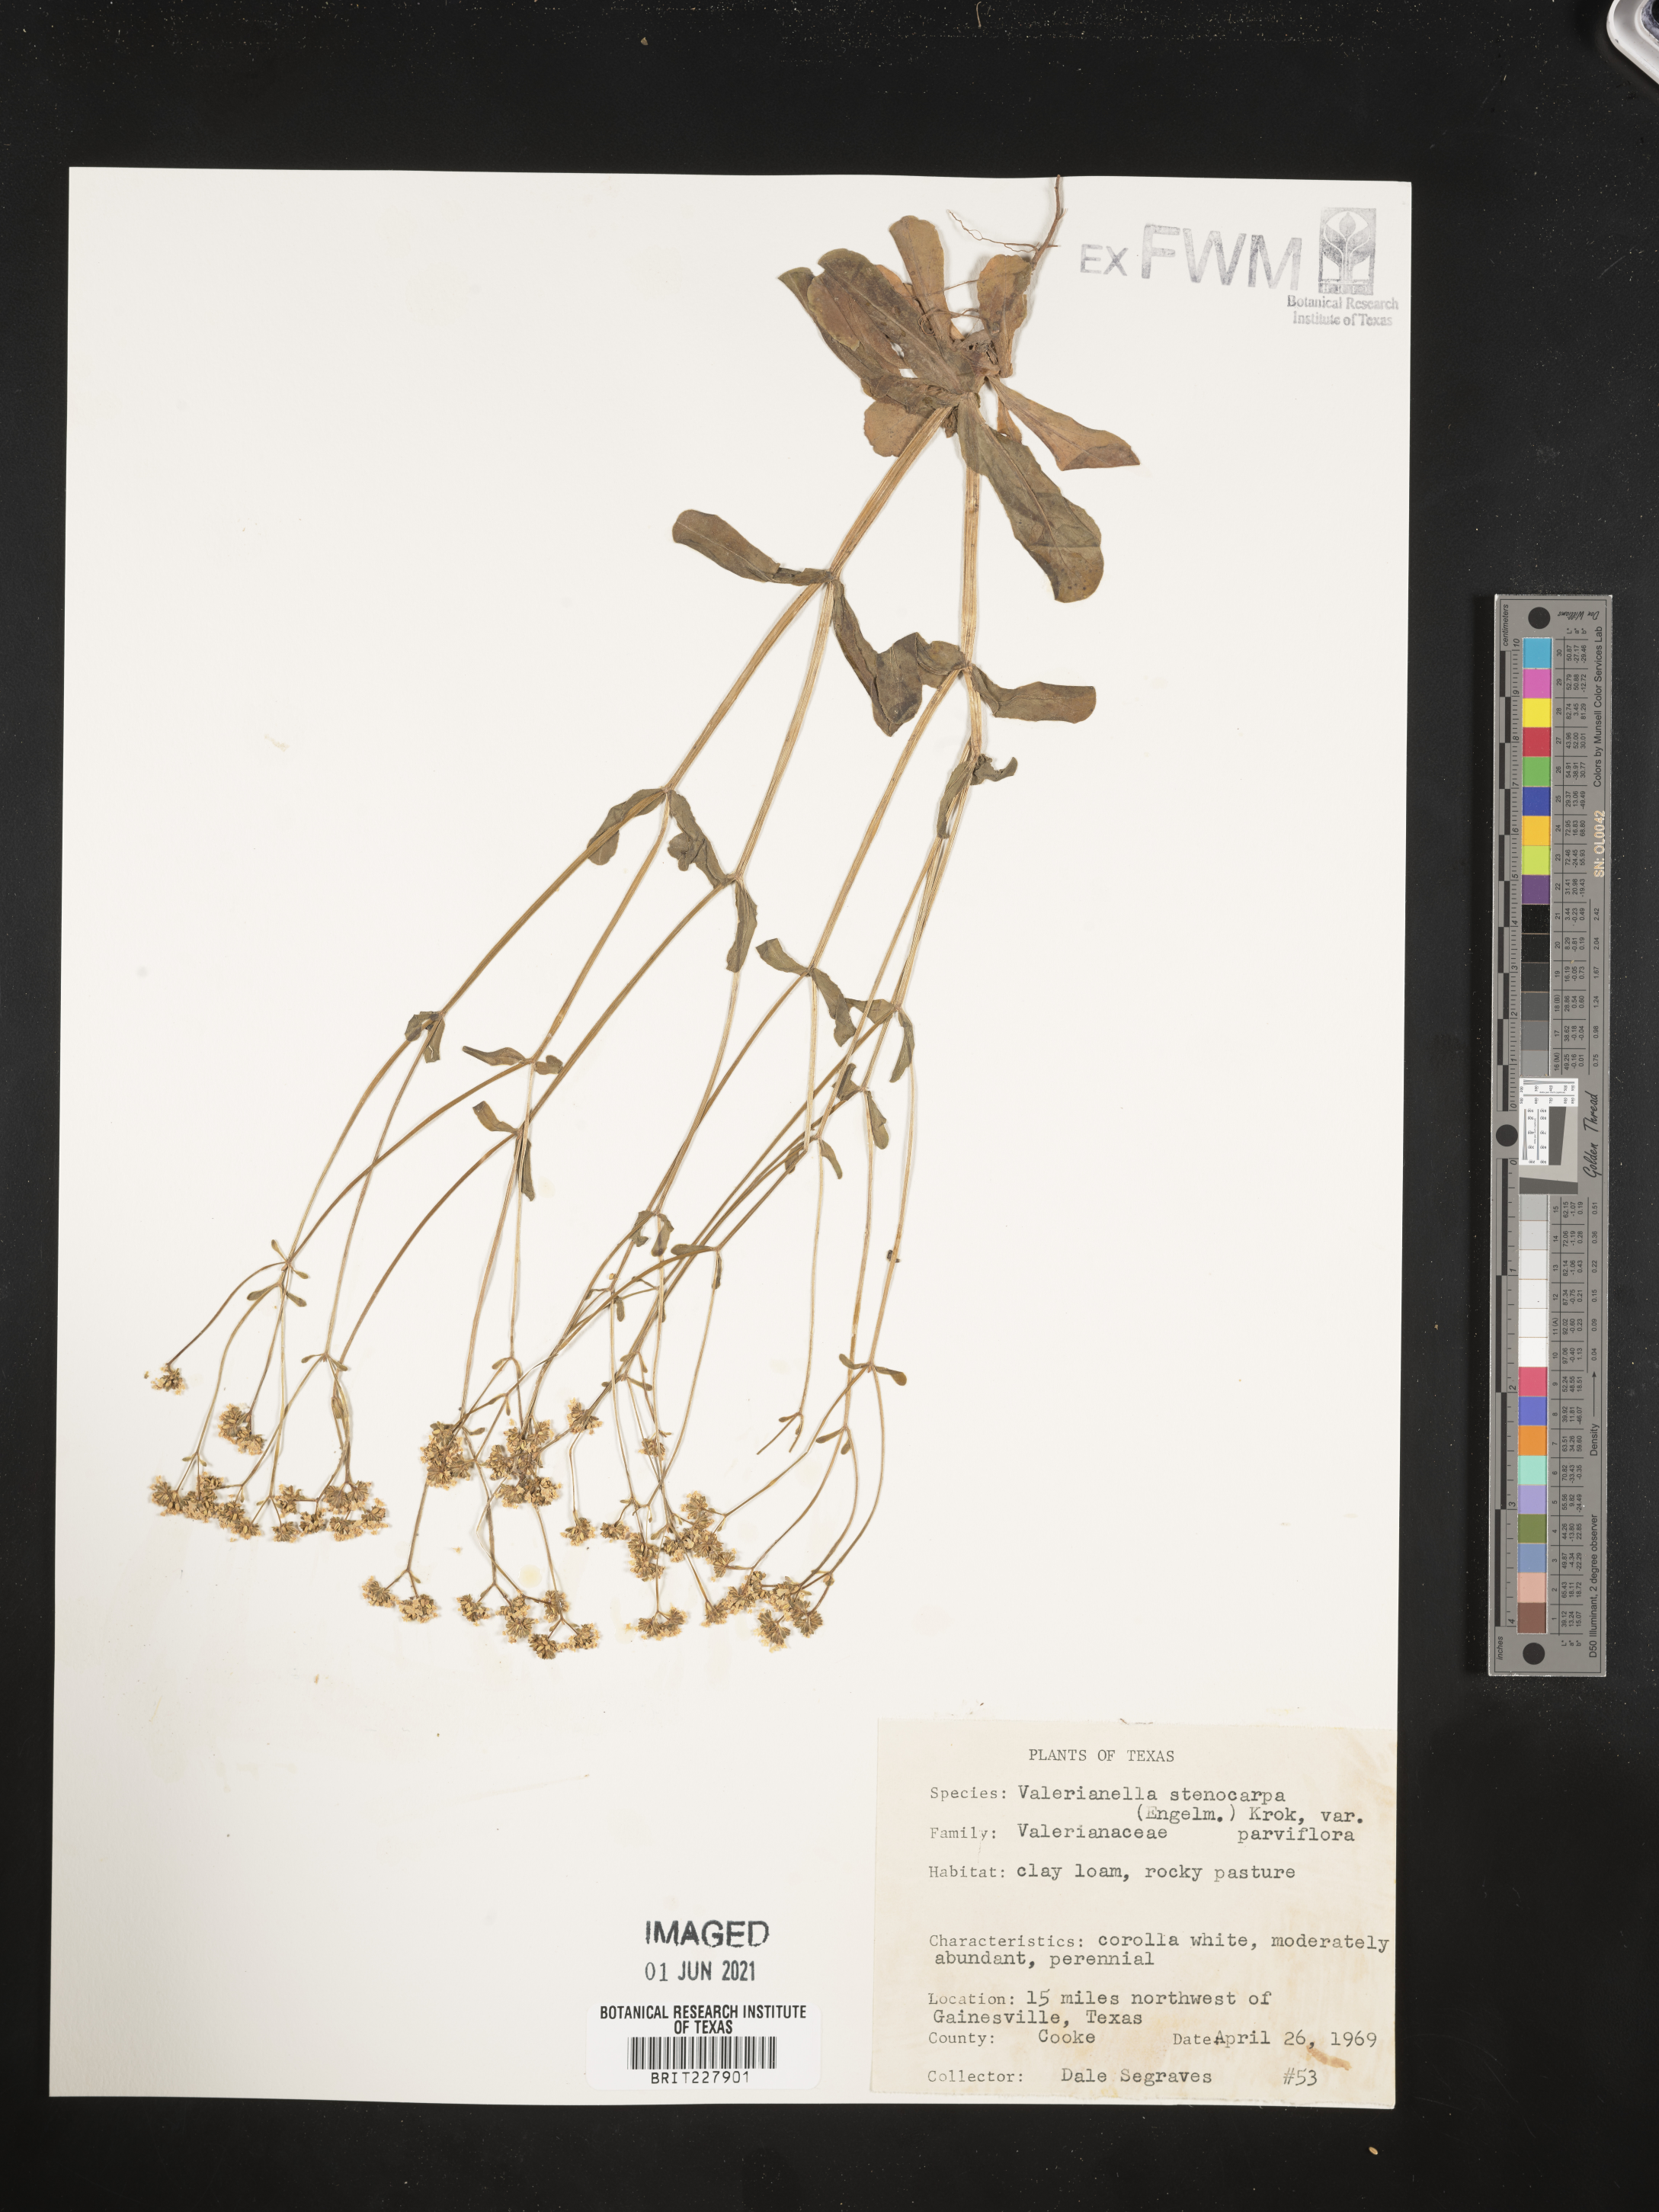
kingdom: Plantae
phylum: Tracheophyta
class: Magnoliopsida
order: Dipsacales
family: Caprifoliaceae
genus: Valerianella
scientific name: Valerianella radiata
